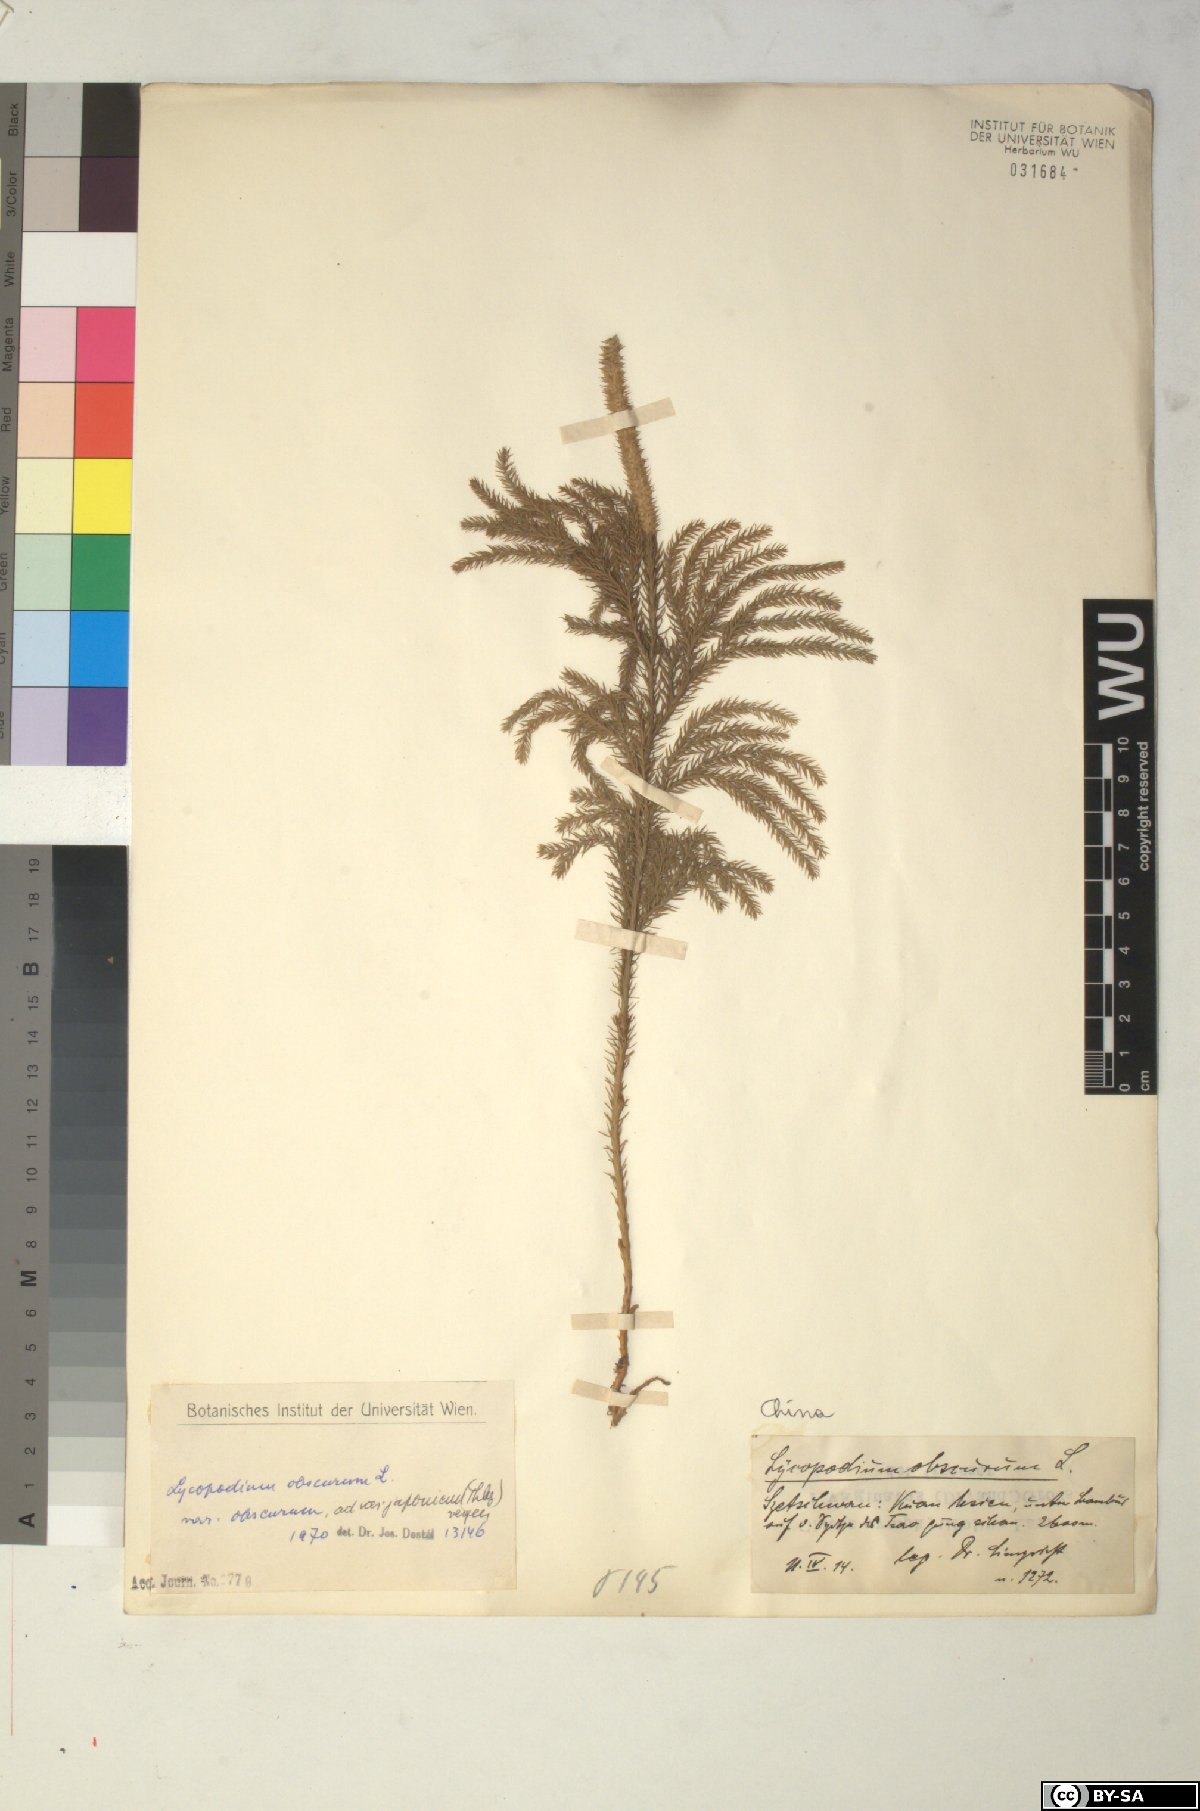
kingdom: Plantae
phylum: Tracheophyta
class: Lycopodiopsida
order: Lycopodiales
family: Lycopodiaceae
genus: Dendrolycopodium
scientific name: Dendrolycopodium obscurum
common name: Common ground-pine
